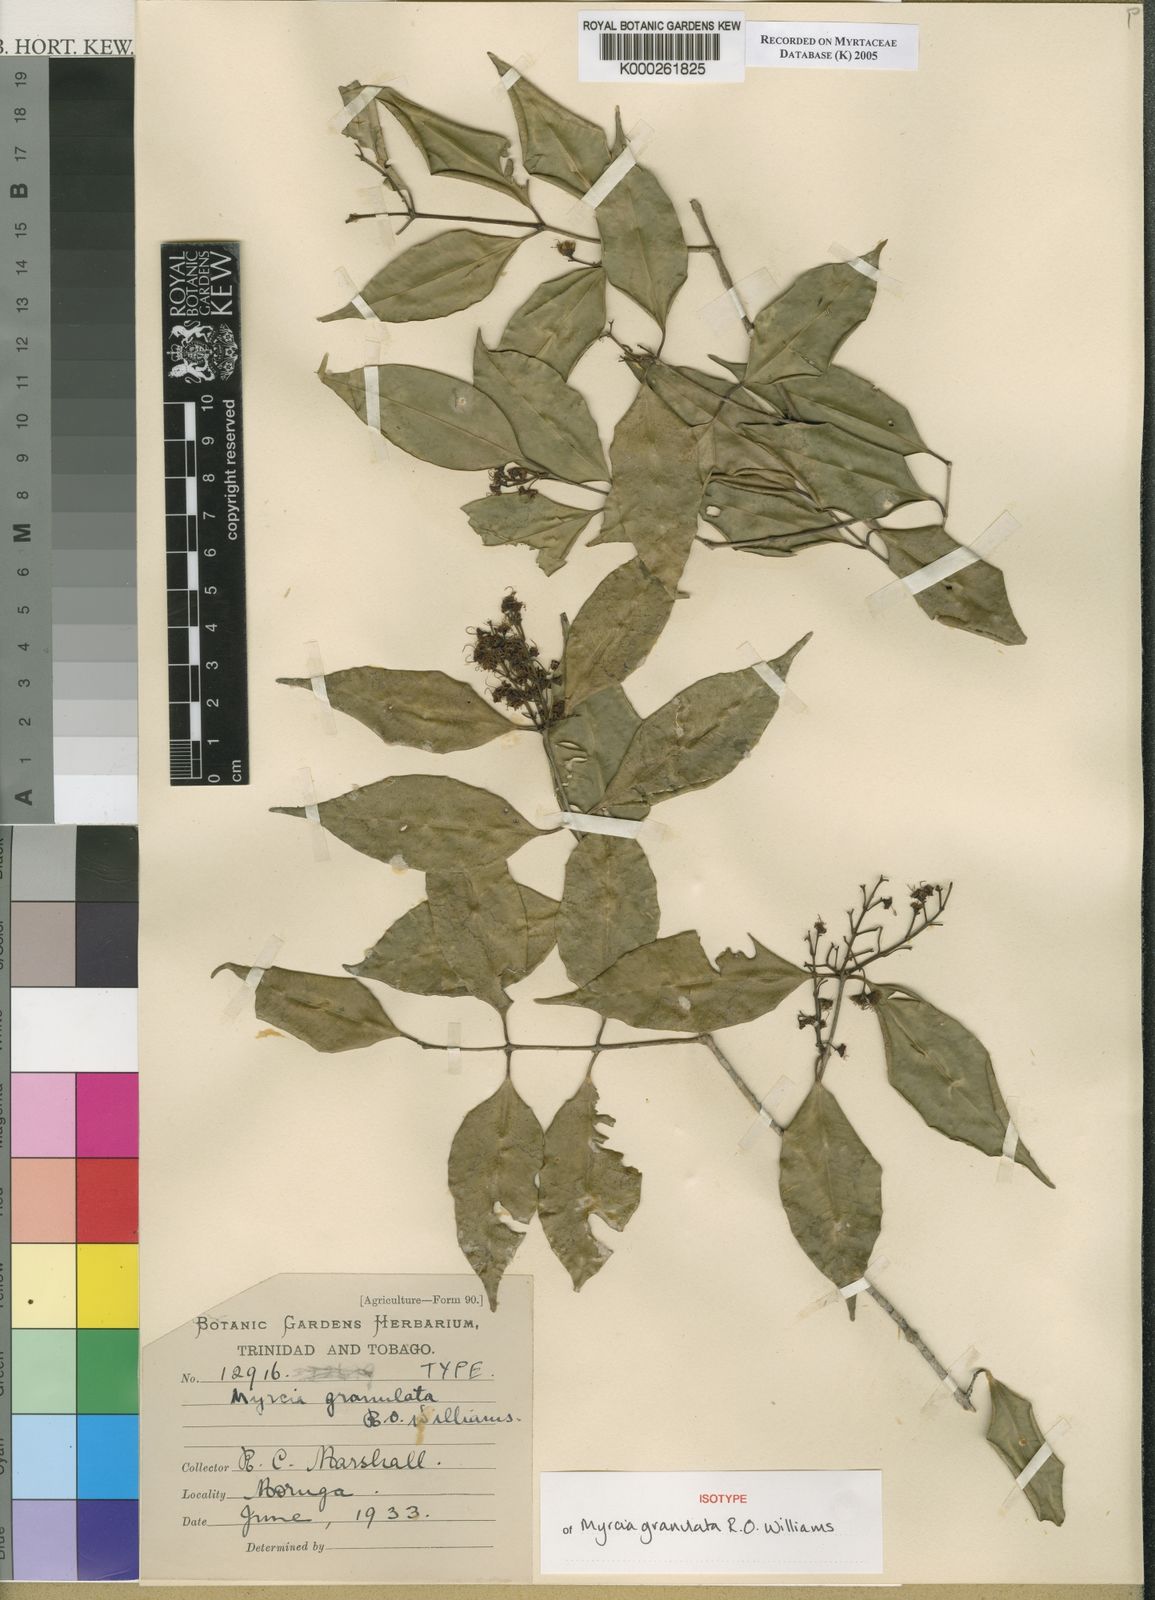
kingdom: Plantae
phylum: Tracheophyta
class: Magnoliopsida
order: Myrtales
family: Myrtaceae
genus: Plinia
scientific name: Plinia rivularis
